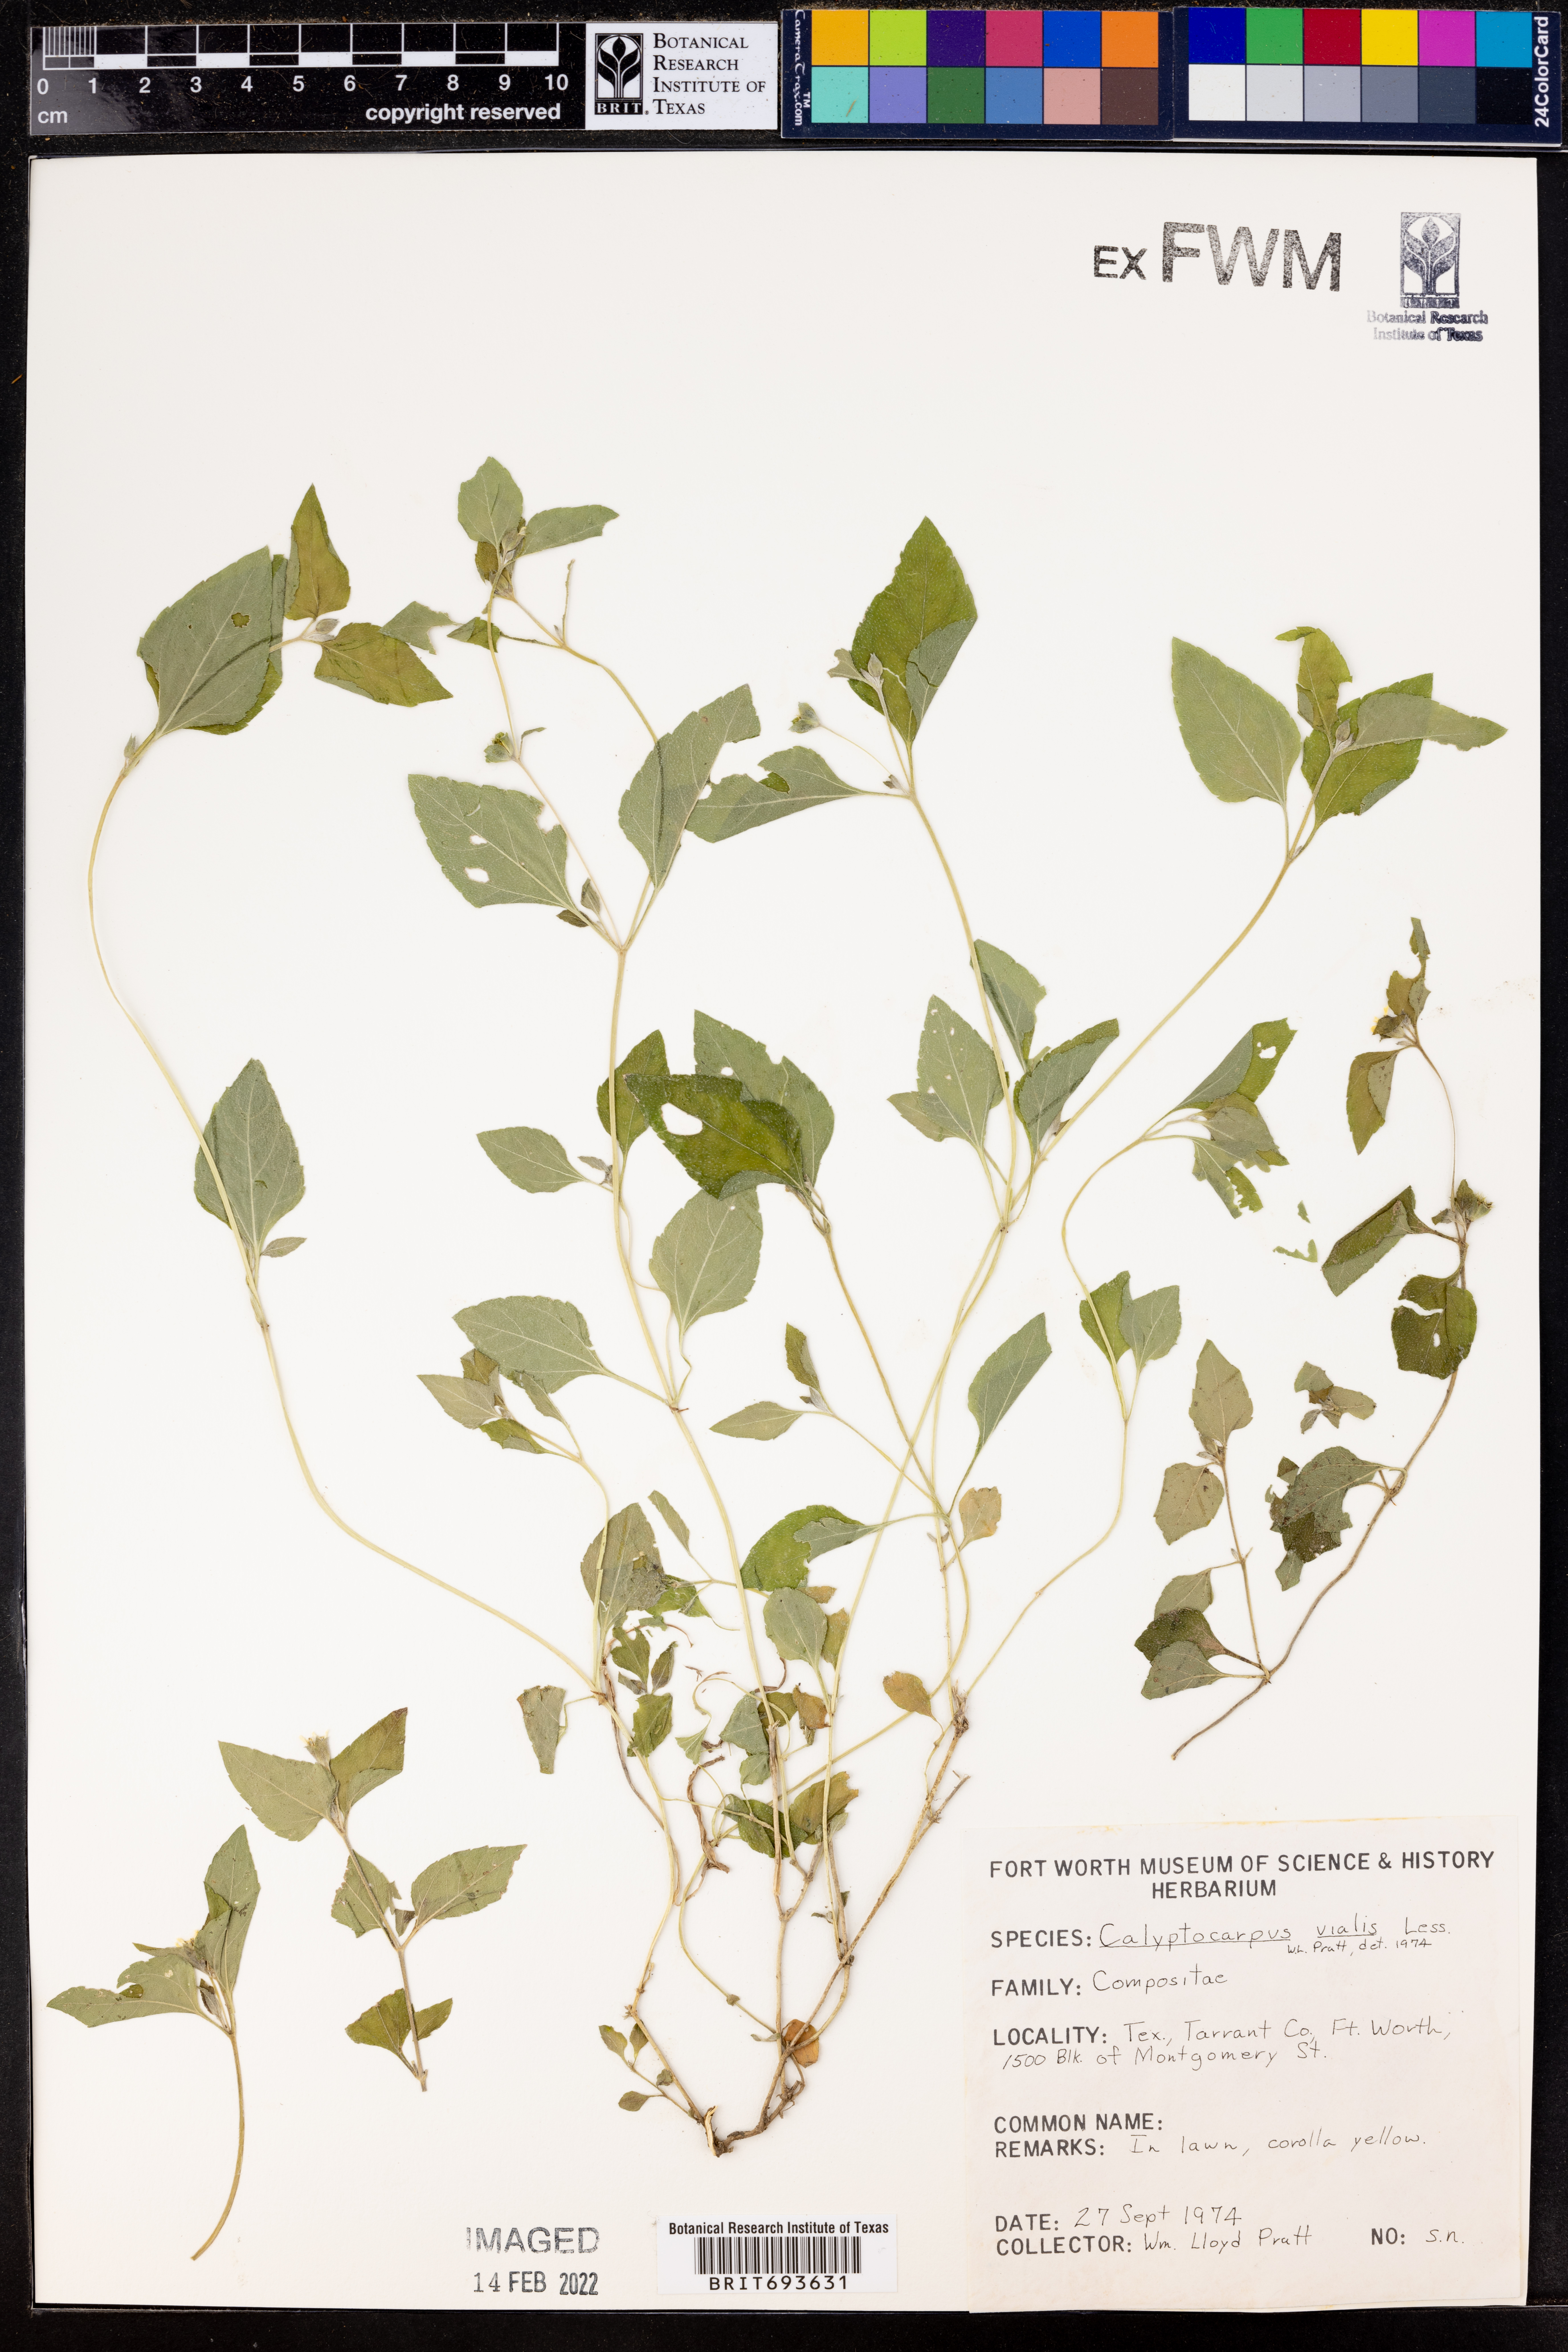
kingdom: Plantae
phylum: Tracheophyta
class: Magnoliopsida
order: Asterales
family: Asteraceae
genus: Calyptocarpus
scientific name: Calyptocarpus vialis
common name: Straggler daisy
